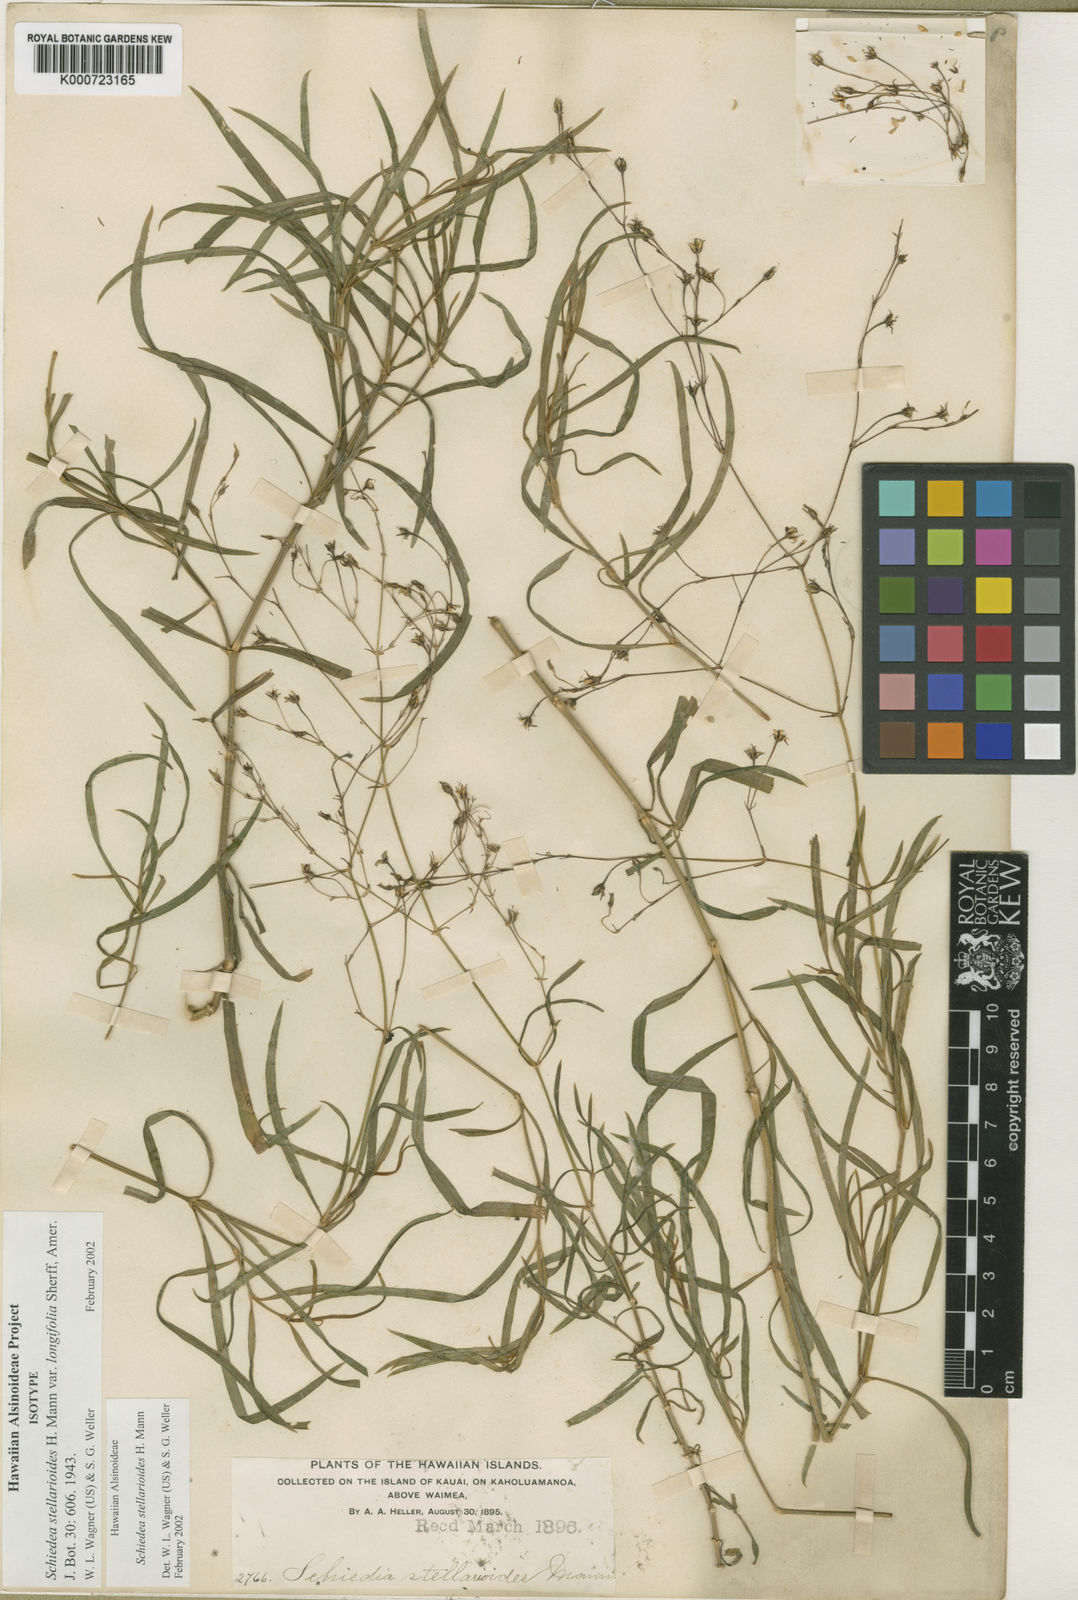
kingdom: Plantae
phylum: Tracheophyta
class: Magnoliopsida
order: Caryophyllales
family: Caryophyllaceae
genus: Schiedea
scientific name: Schiedea stellarioides
